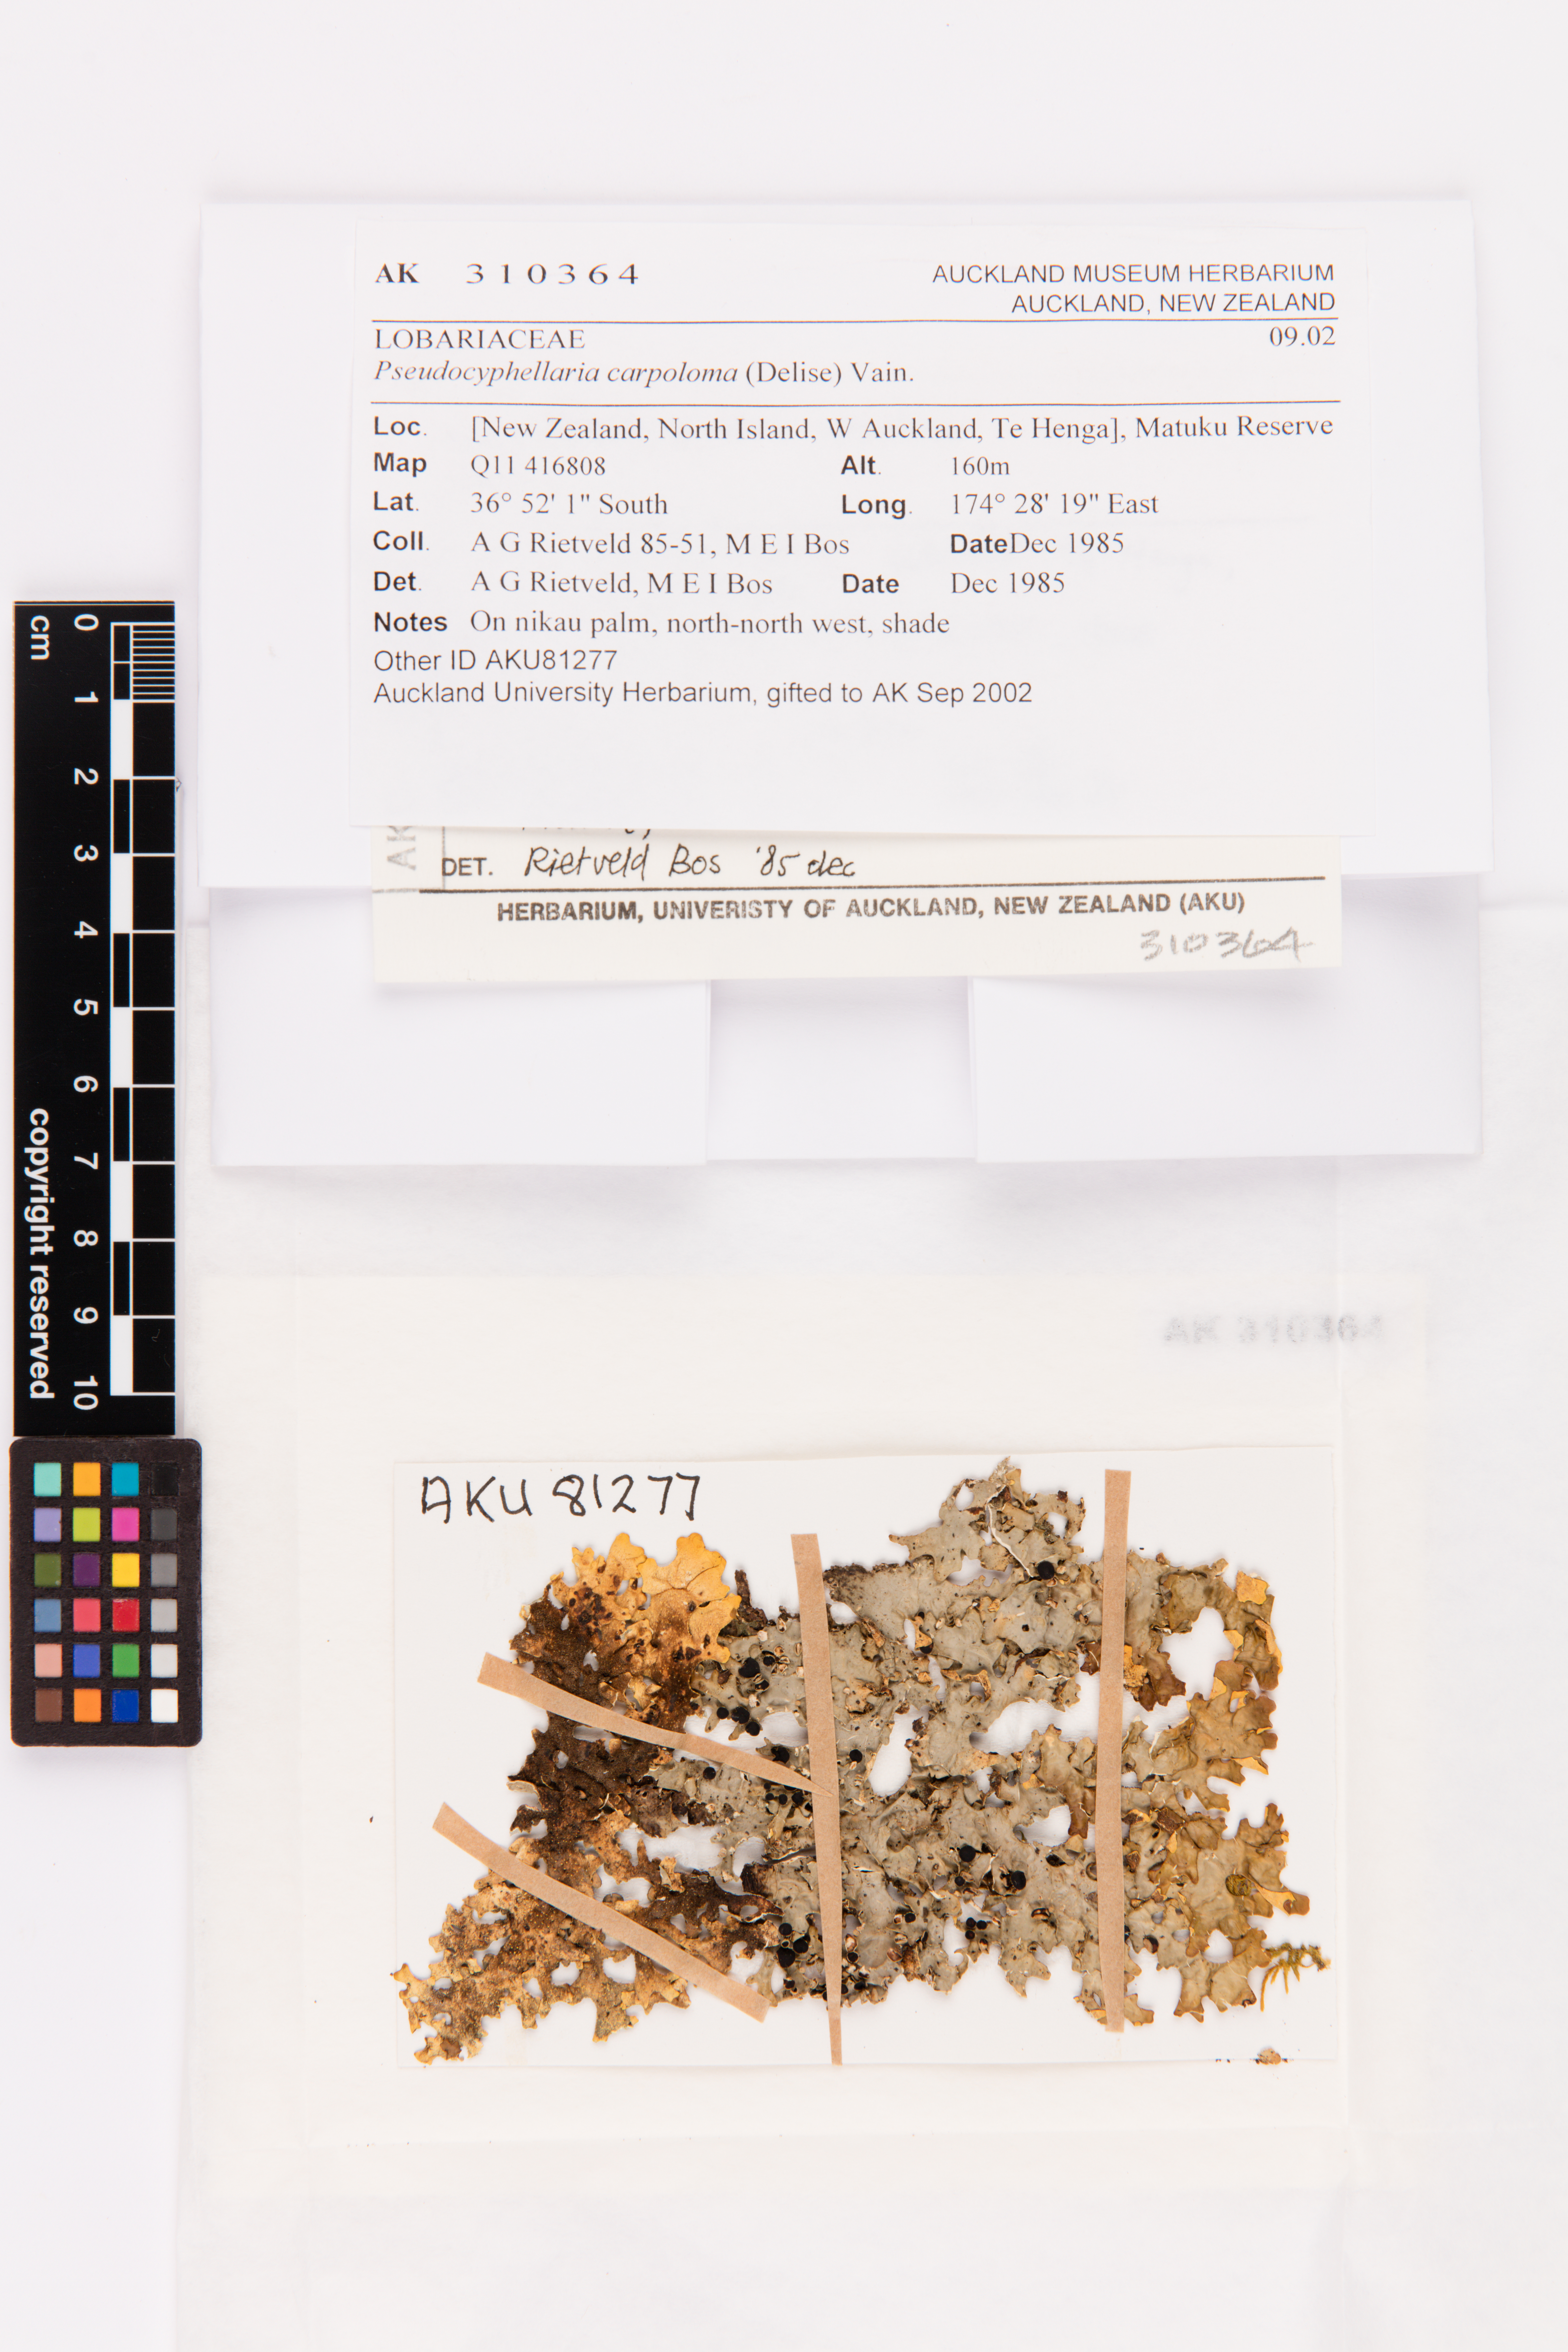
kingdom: Fungi
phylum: Ascomycota
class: Lecanoromycetes
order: Peltigerales
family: Lobariaceae
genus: Pseudocyphellaria
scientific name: Pseudocyphellaria carpoloma
